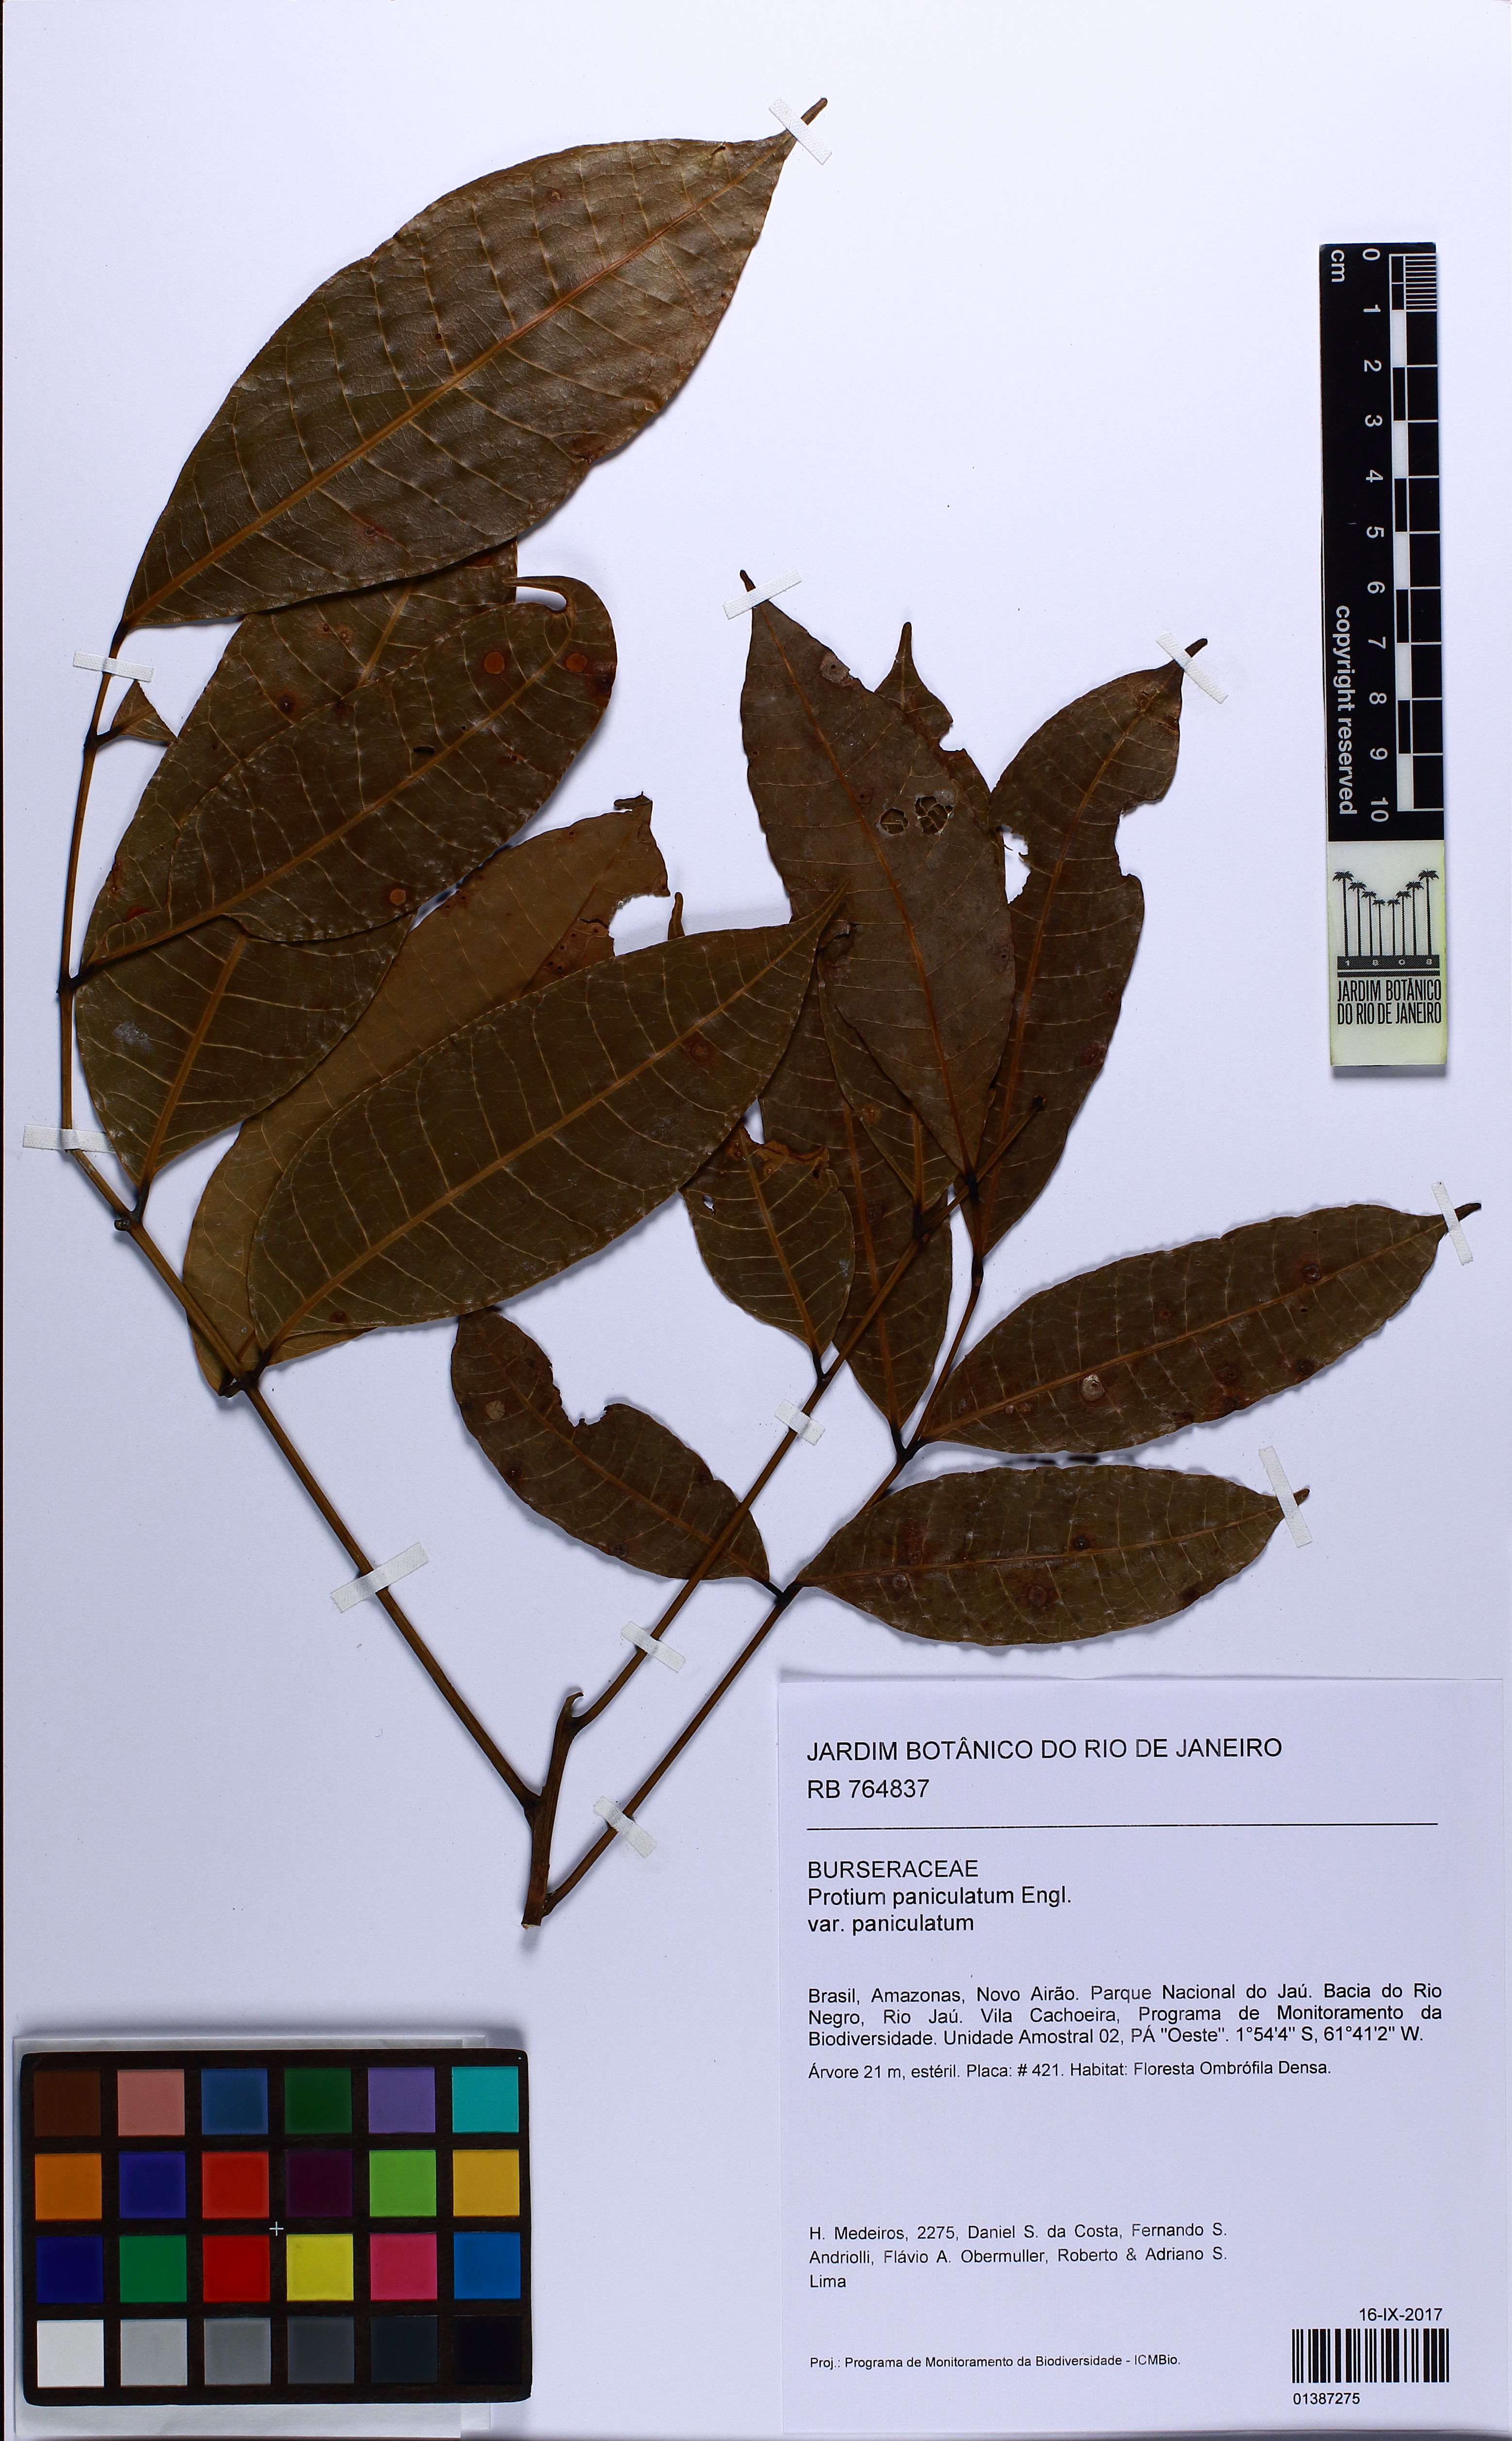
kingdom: Plantae
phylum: Tracheophyta
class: Magnoliopsida
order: Sapindales
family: Burseraceae
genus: Protium
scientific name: Protium paniculatum
